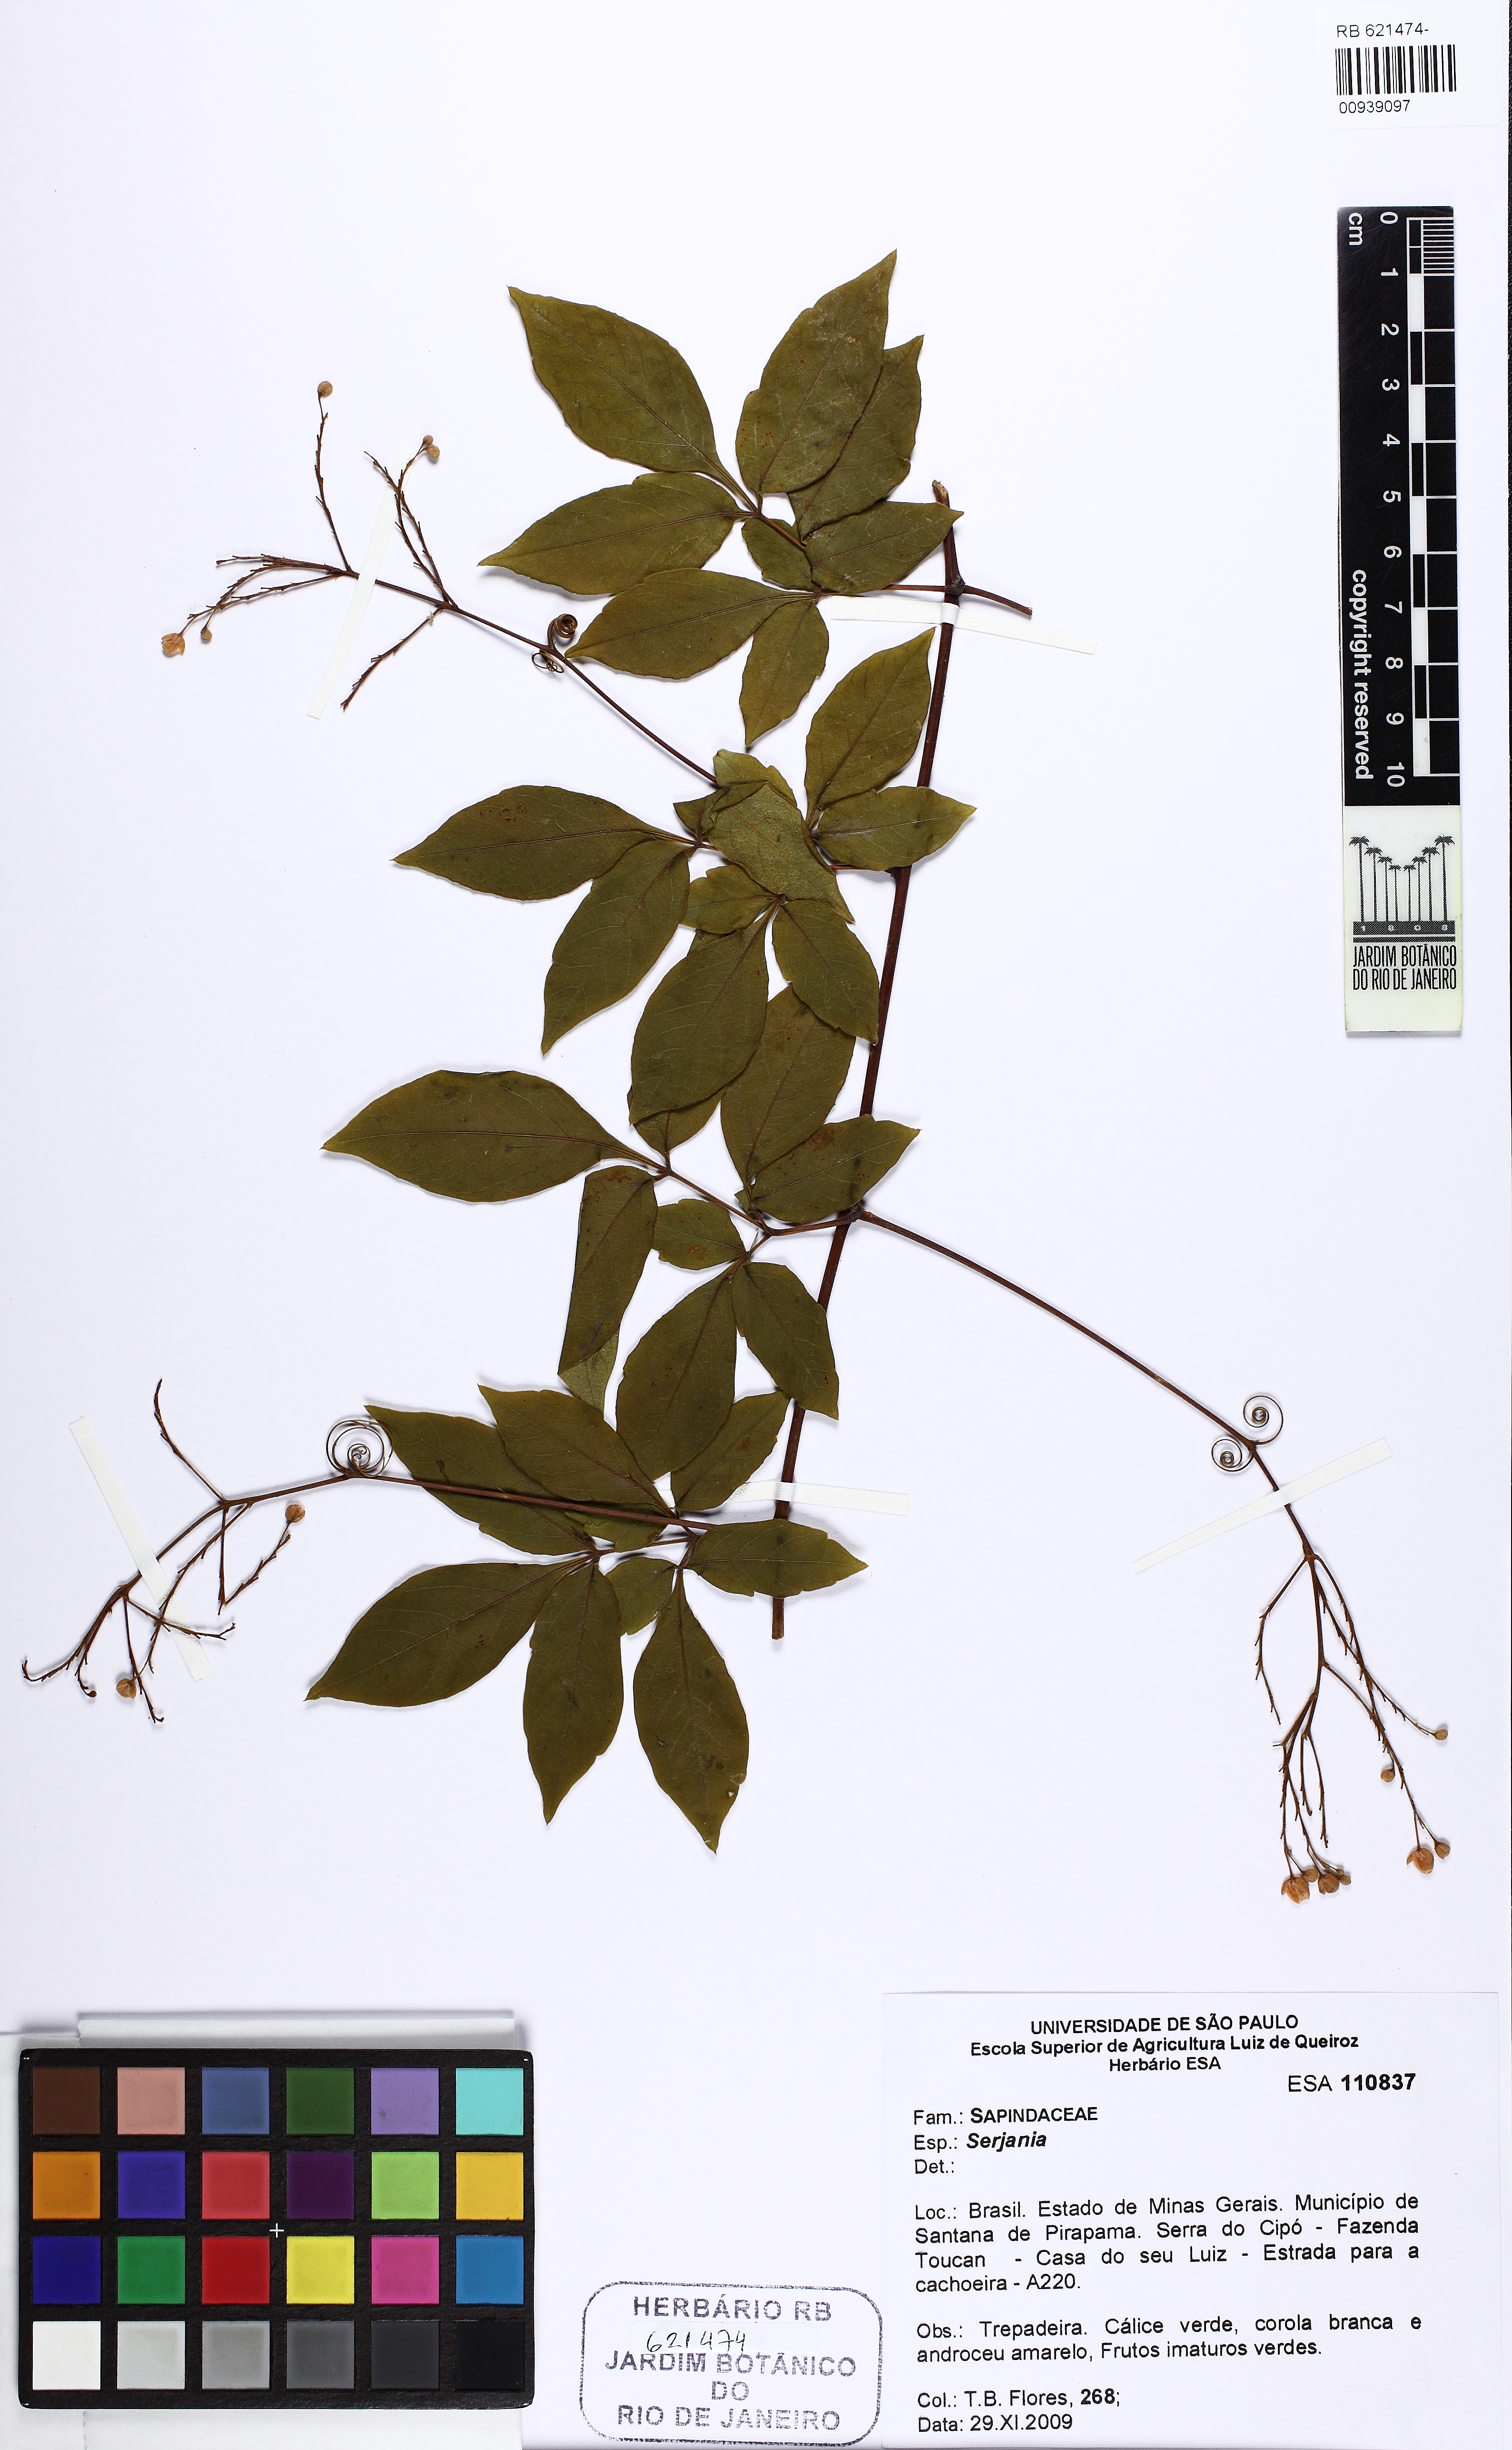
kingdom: Plantae
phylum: Tracheophyta
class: Magnoliopsida
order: Sapindales
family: Sapindaceae
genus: Serjania
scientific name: Serjania paradoxa
